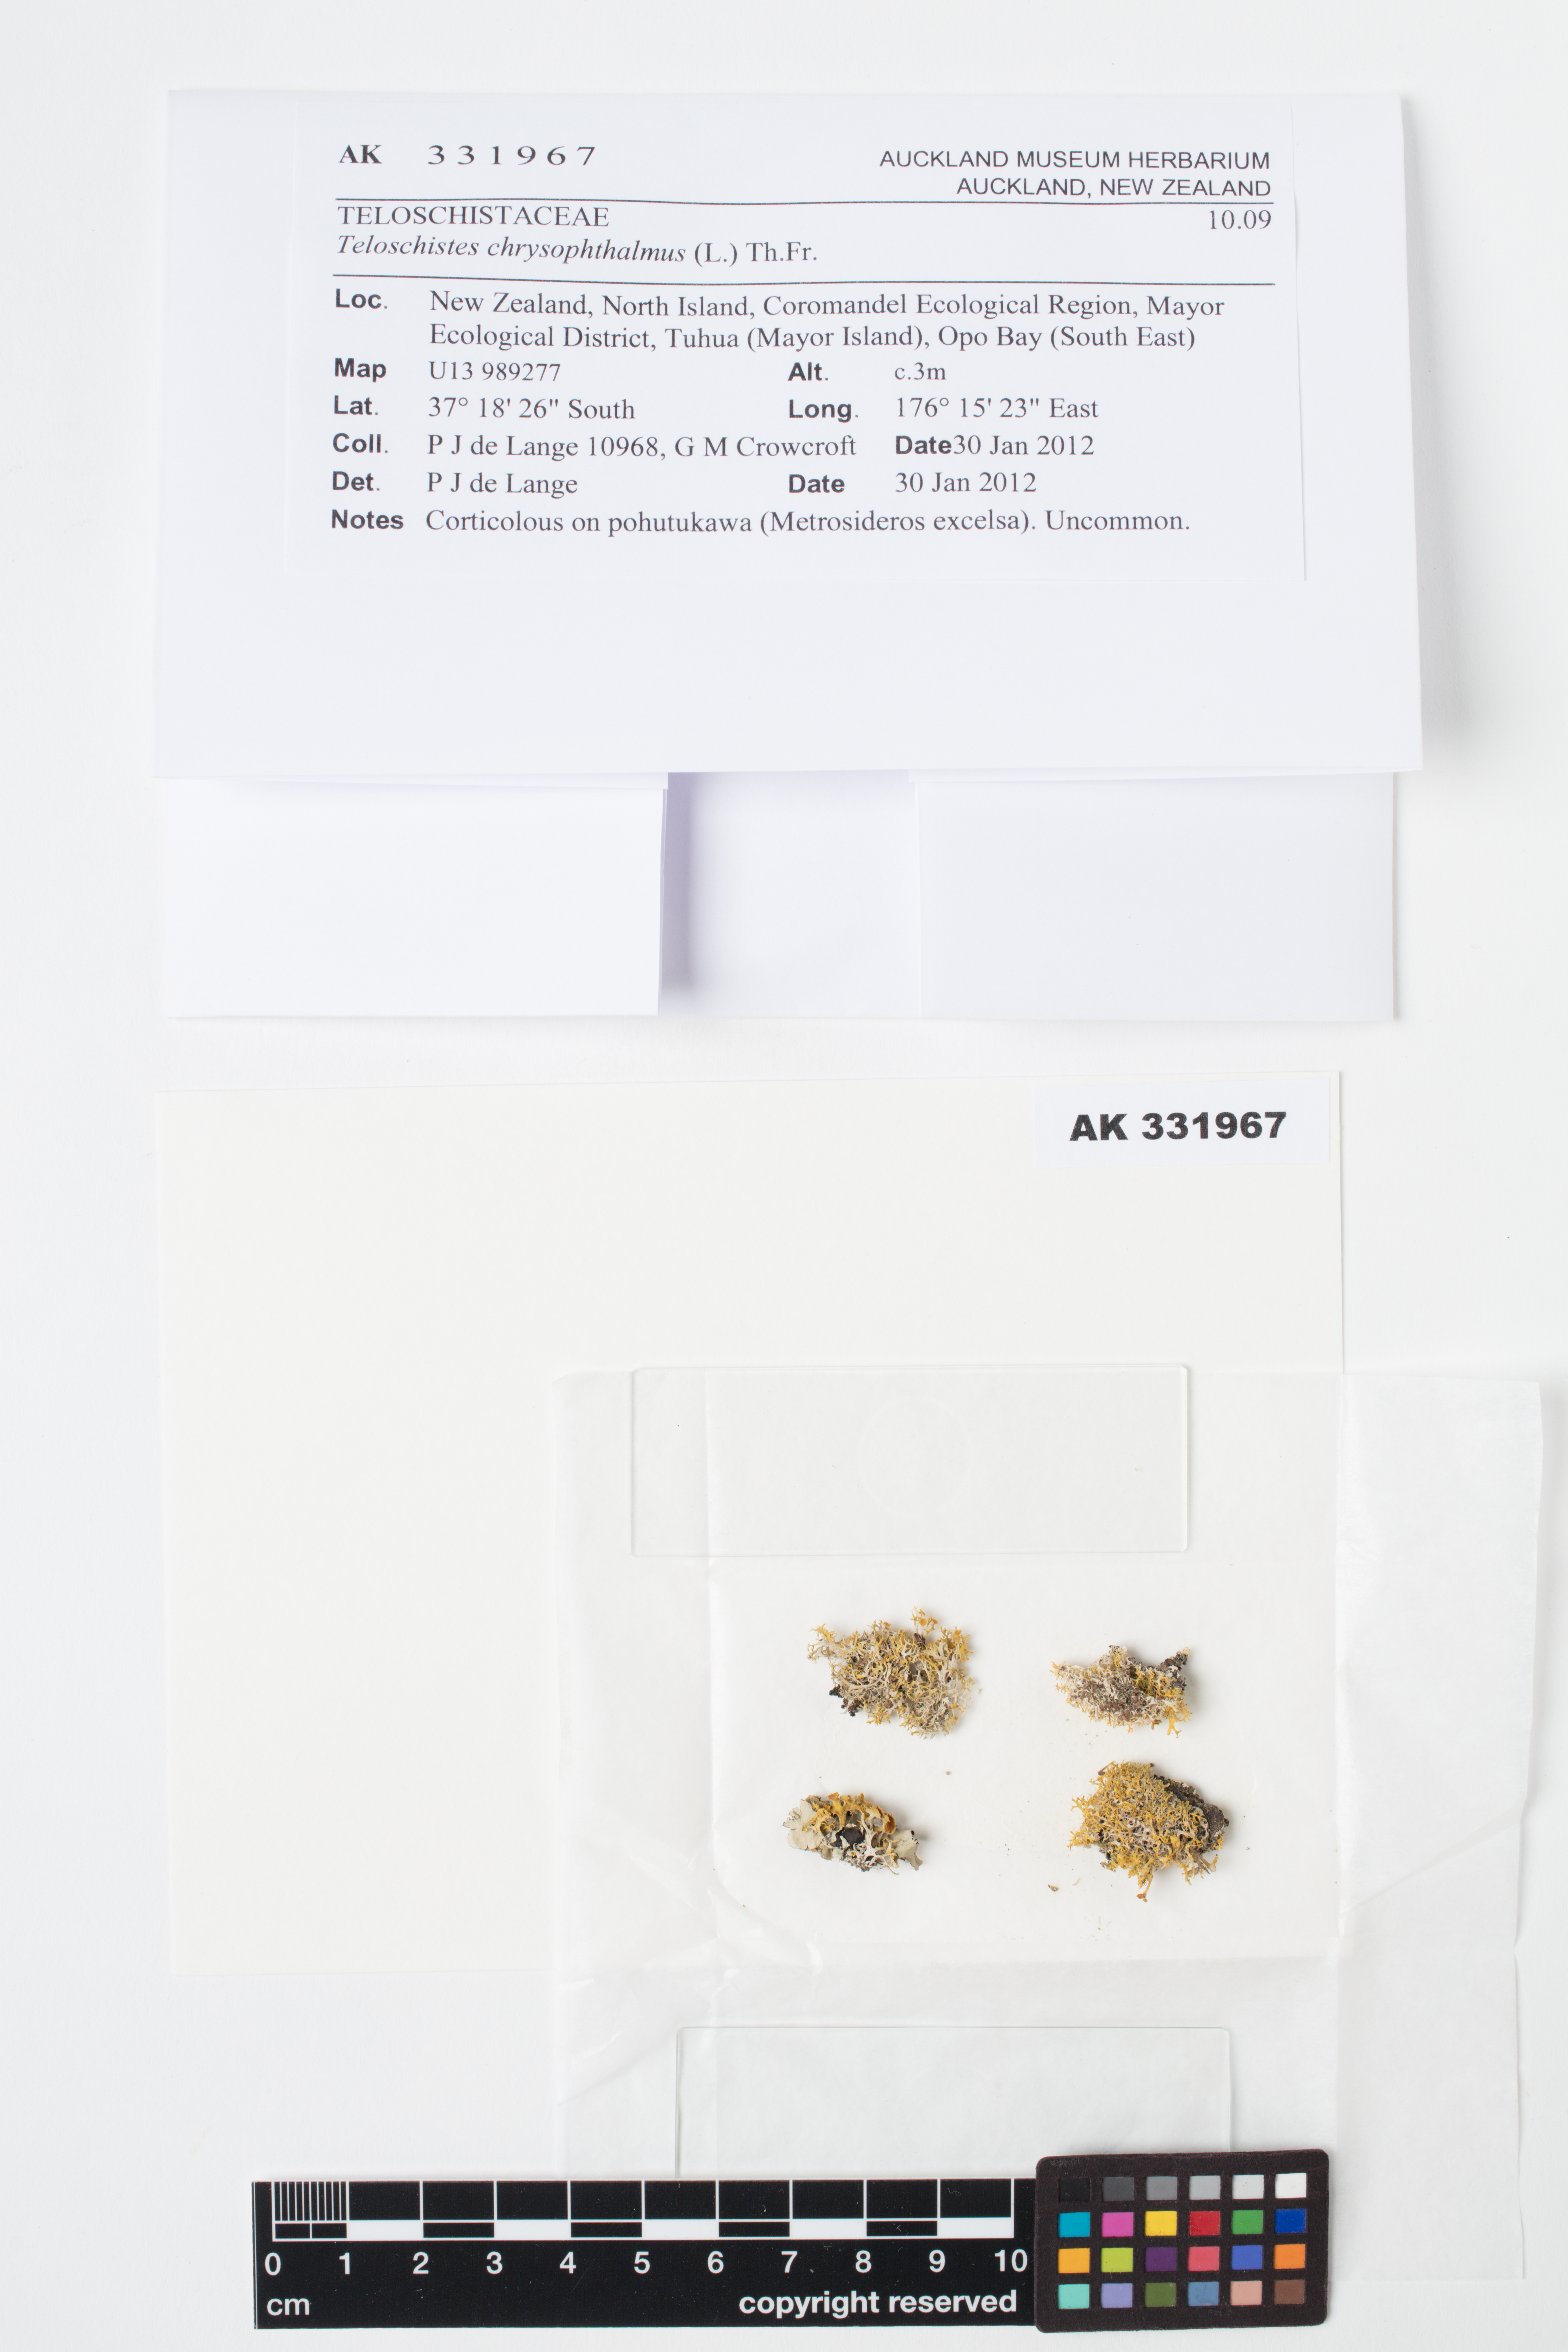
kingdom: Fungi
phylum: Ascomycota
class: Lecanoromycetes
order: Teloschistales
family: Teloschistaceae
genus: Niorma
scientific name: Niorma chrysophthalma
